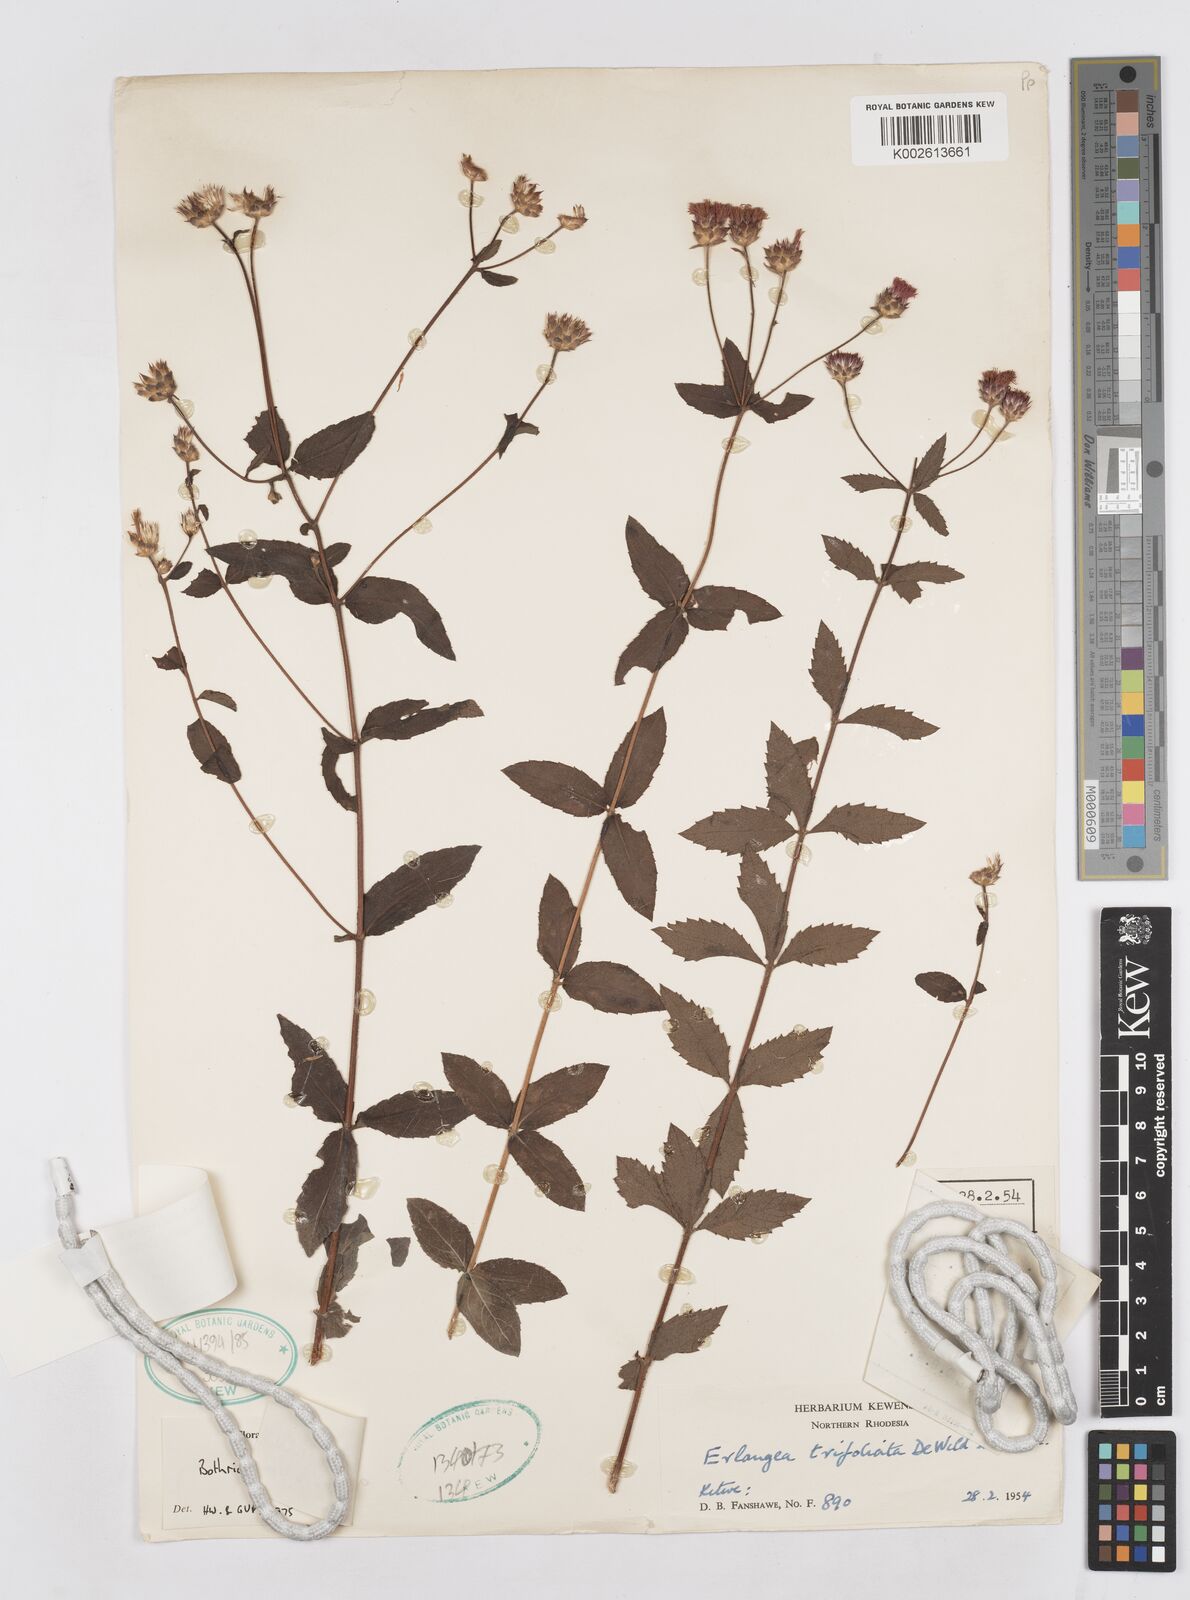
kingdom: Plantae
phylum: Tracheophyta
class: Magnoliopsida
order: Asterales
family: Asteraceae
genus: Bothriocline
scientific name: Bothriocline trifoliata
